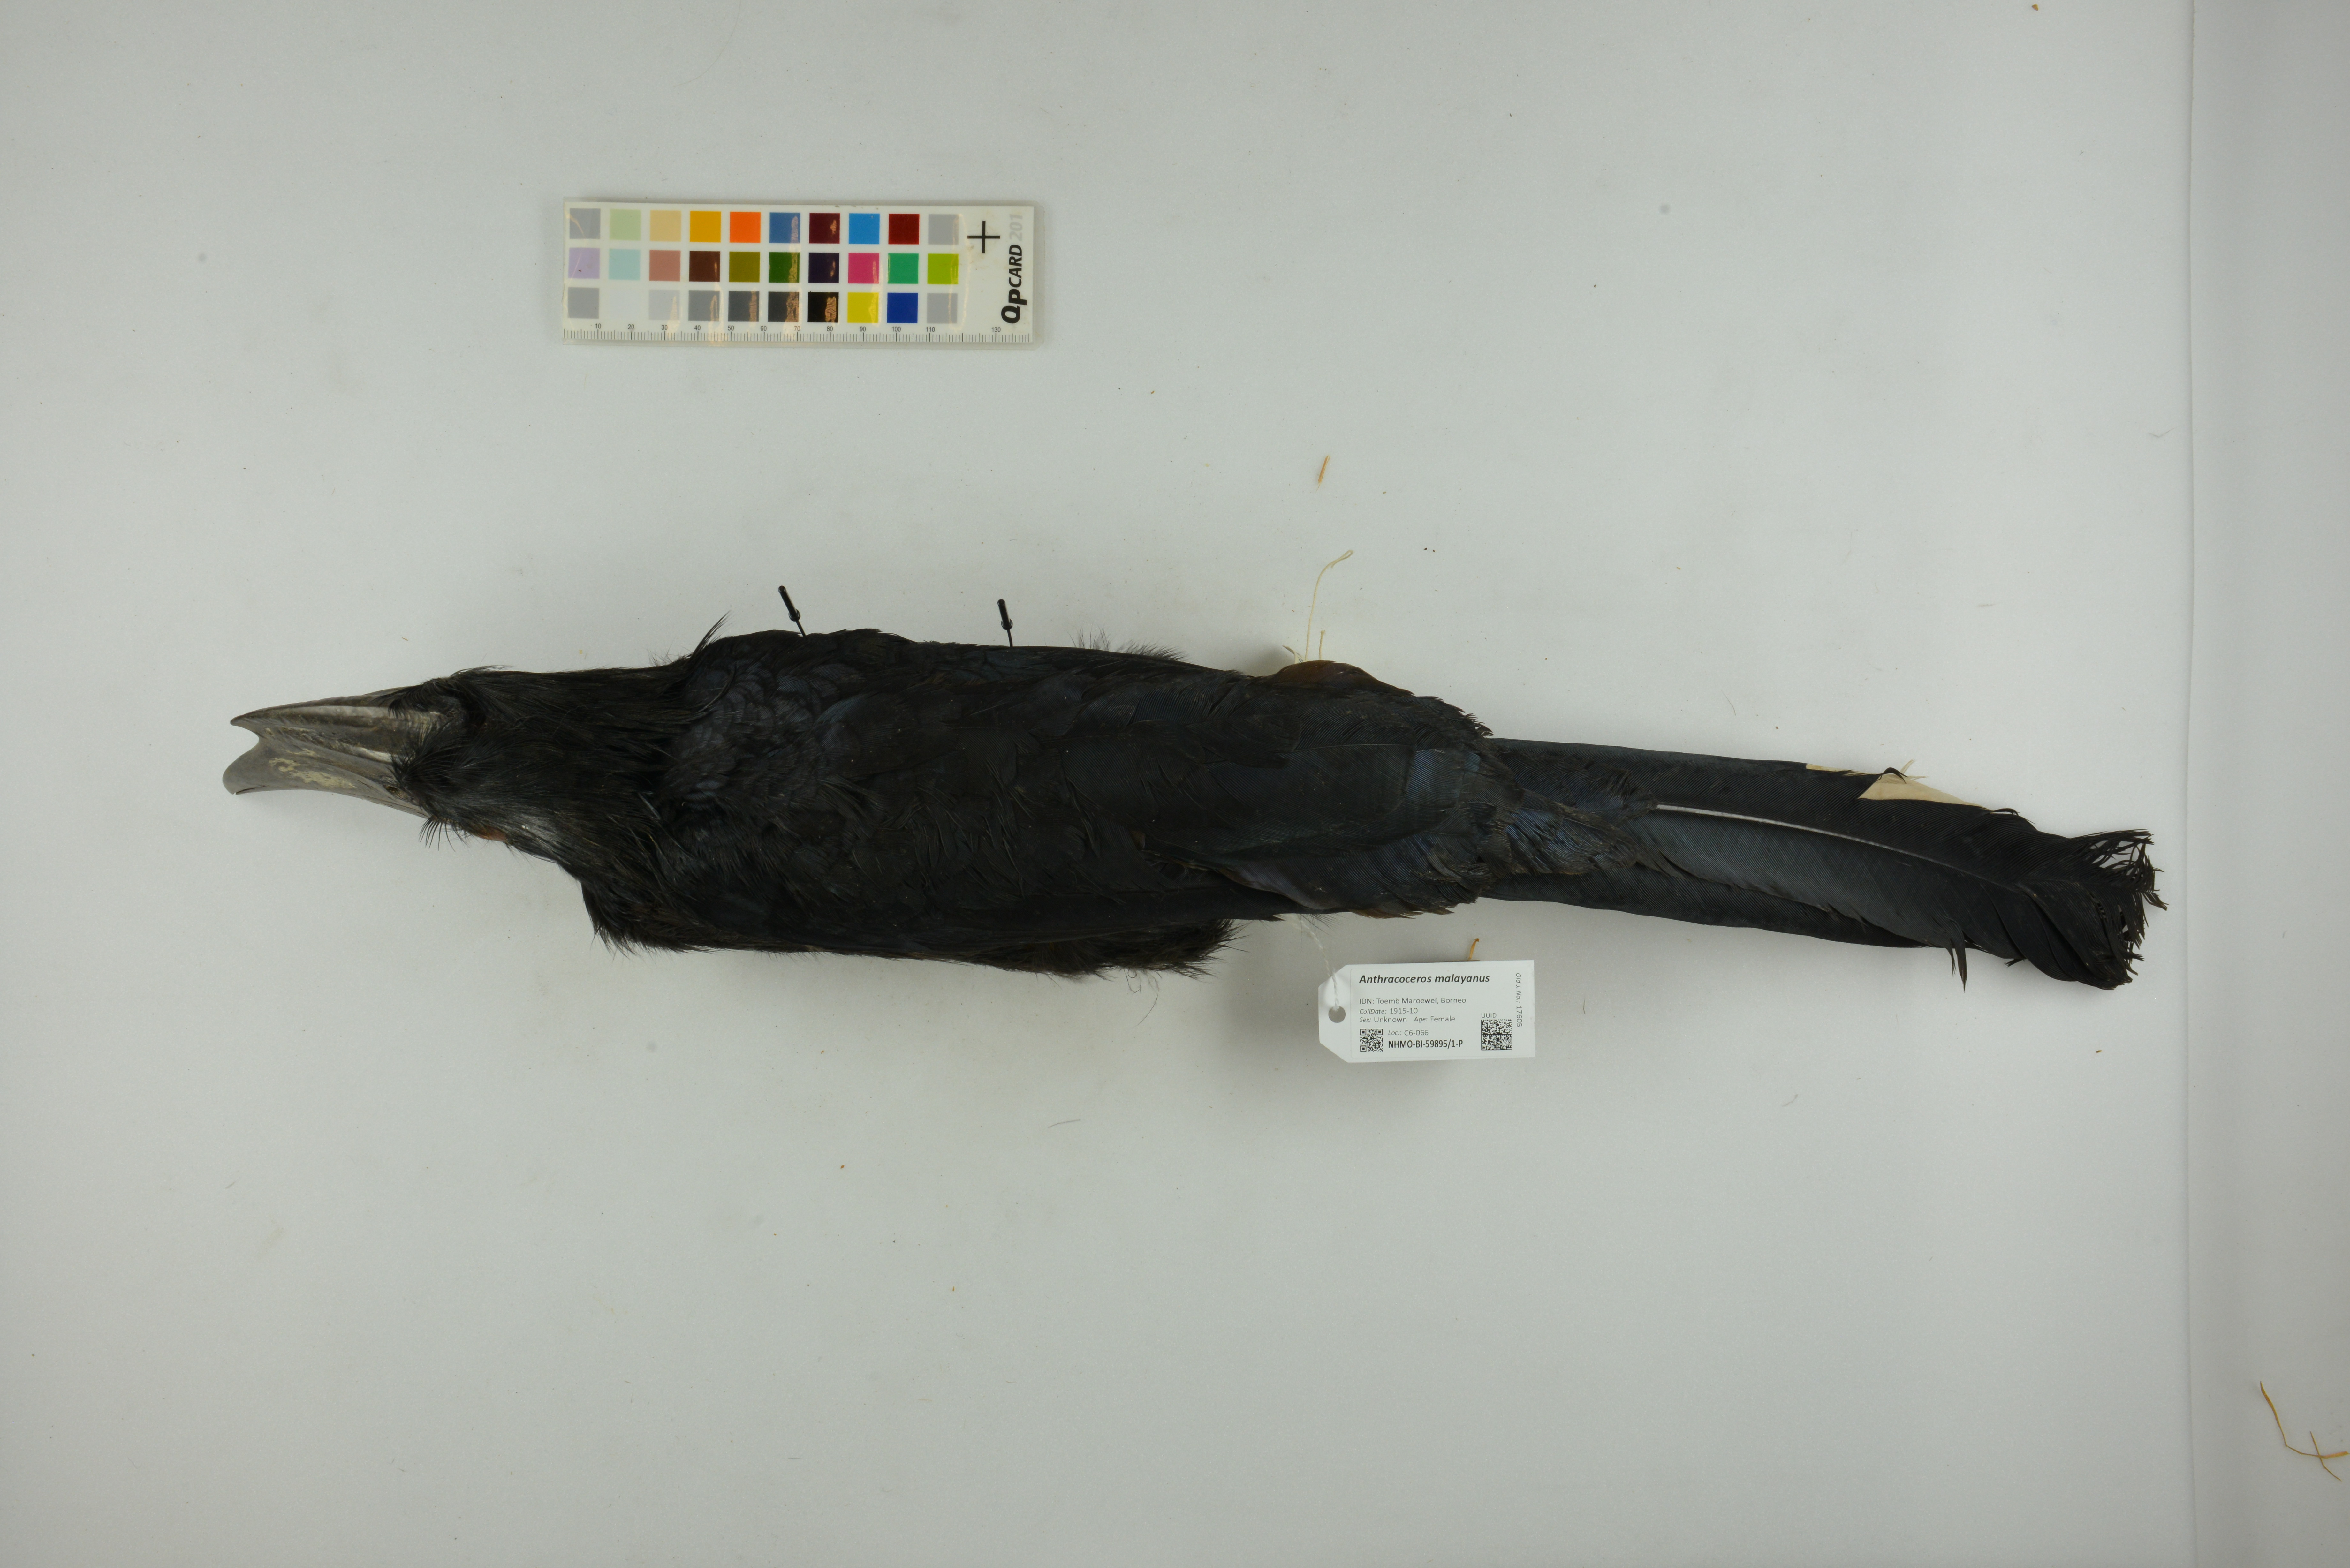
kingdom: Animalia
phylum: Chordata
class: Aves
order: Bucerotiformes
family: Bucerotidae
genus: Anthracoceros
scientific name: Anthracoceros malayanus
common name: Black hornbill
